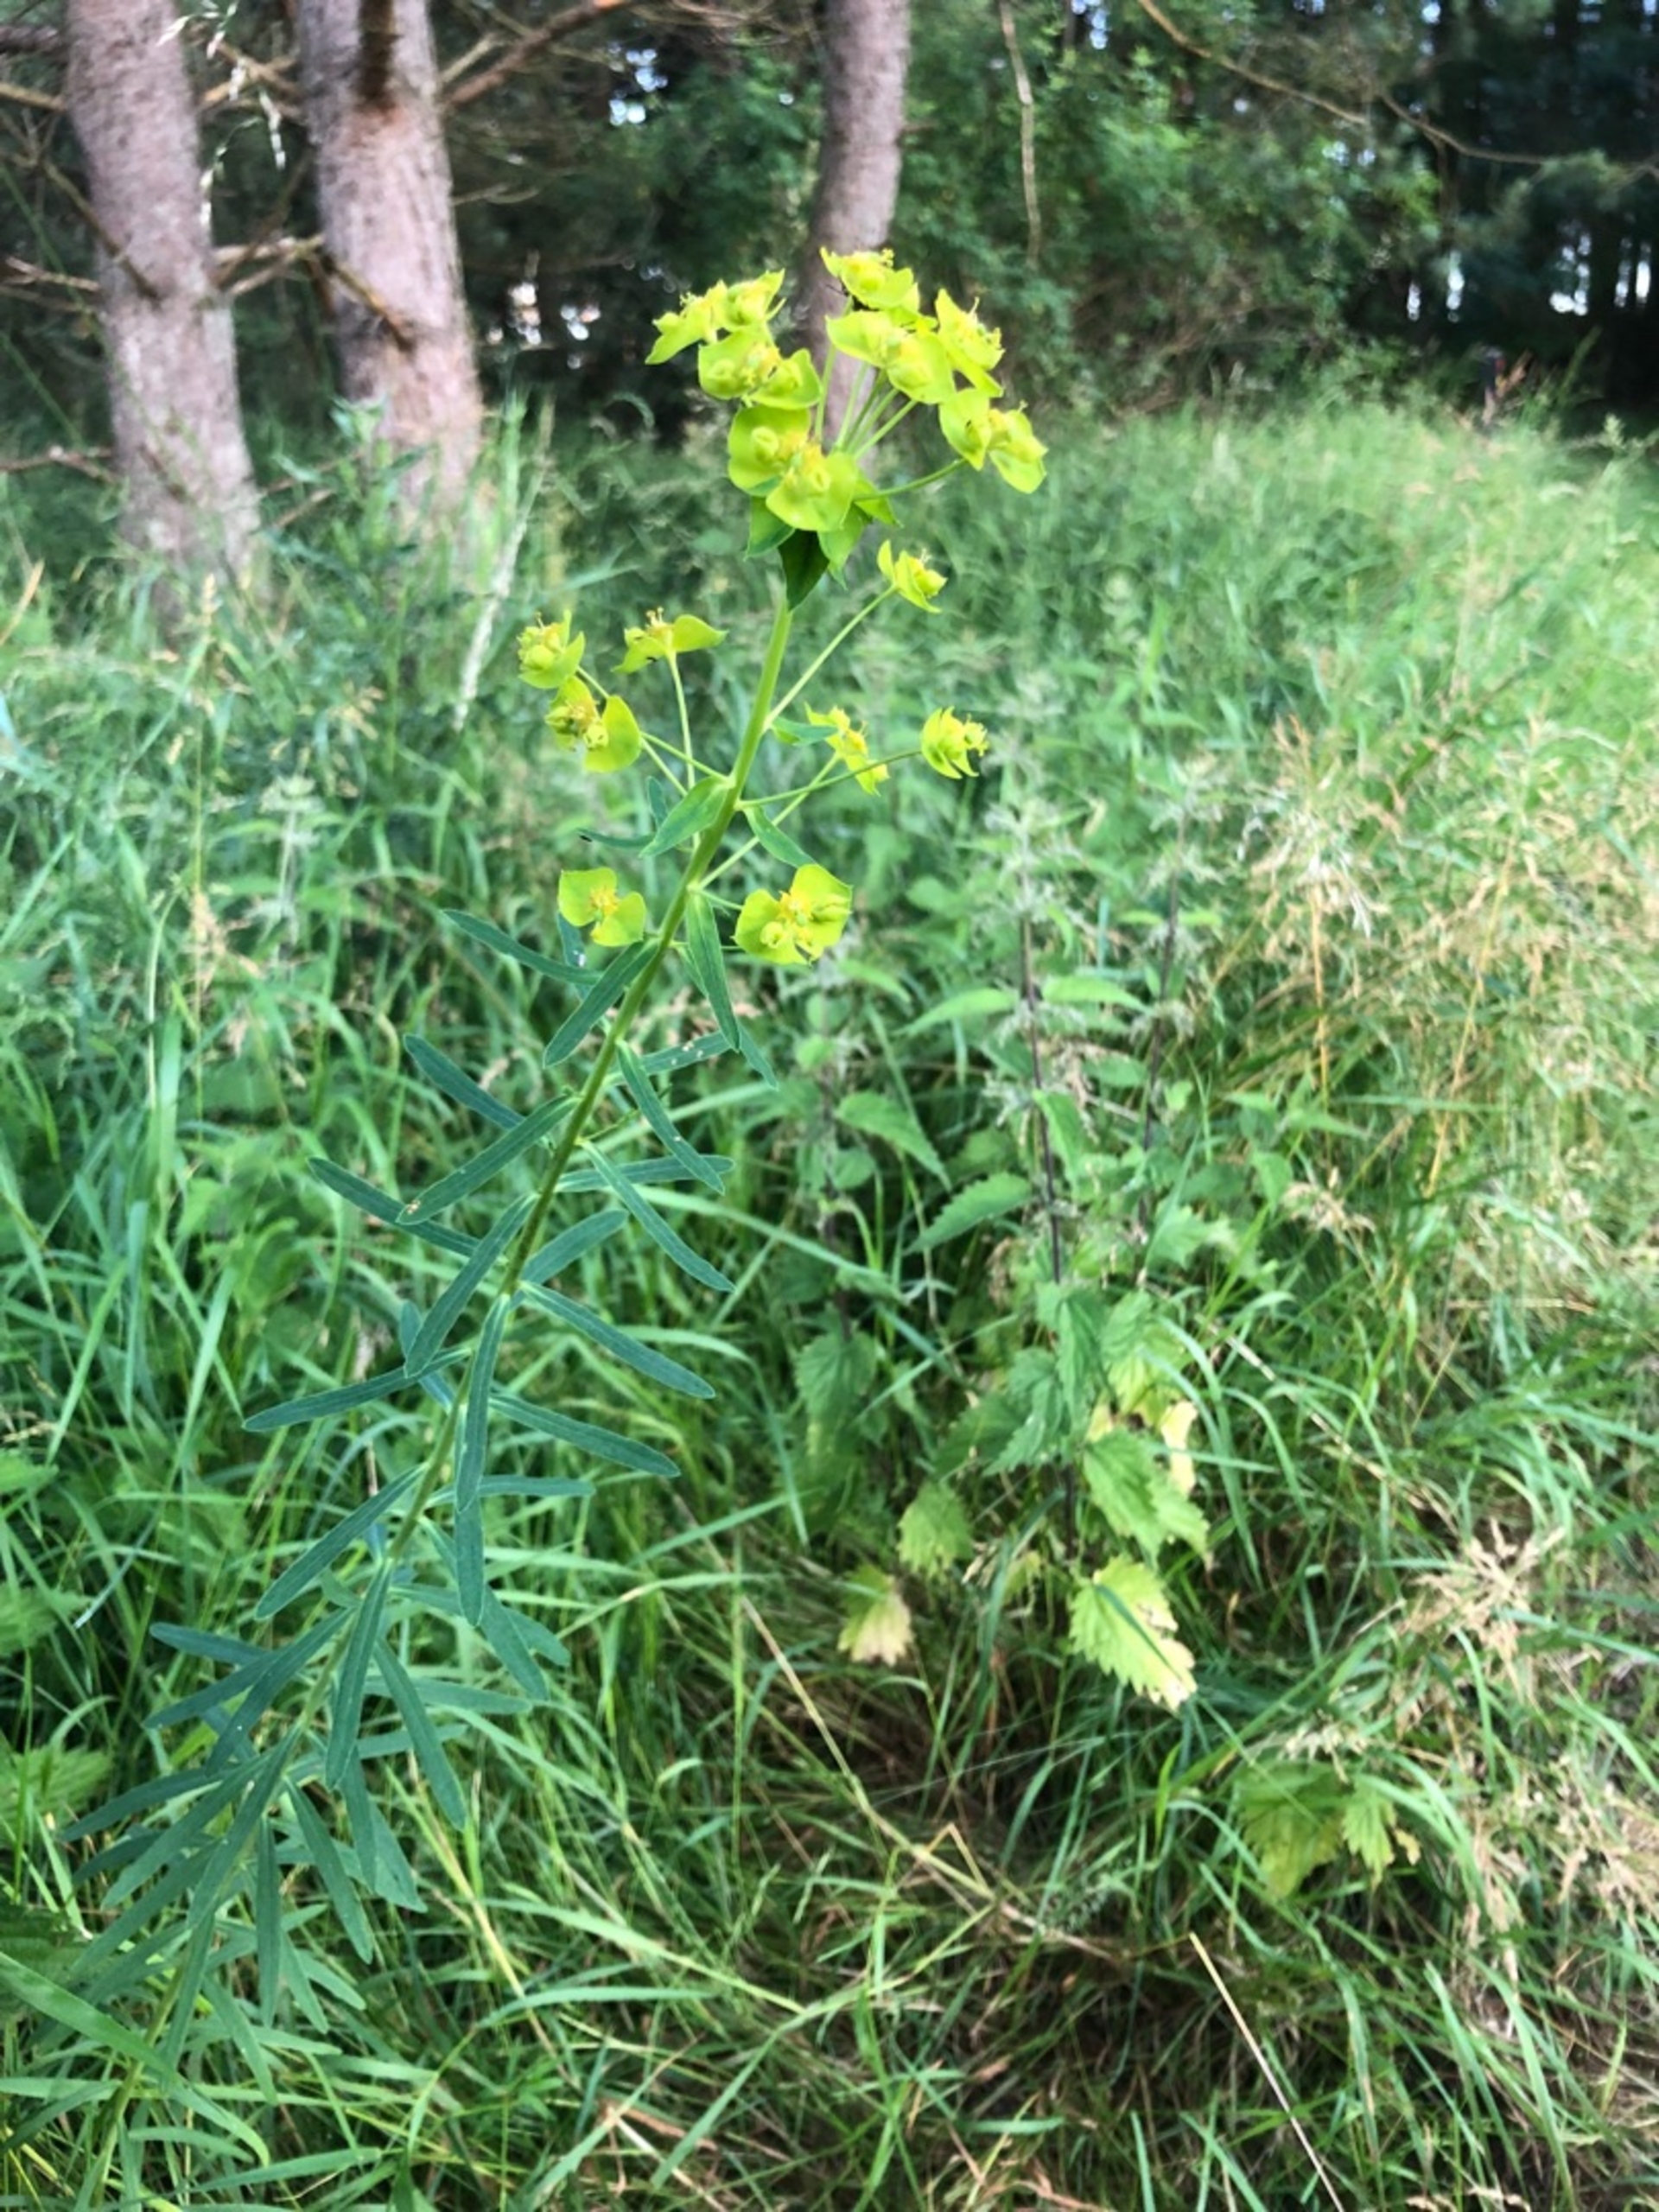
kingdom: Plantae
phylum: Tracheophyta
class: Magnoliopsida
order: Malpighiales
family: Euphorbiaceae
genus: Euphorbia
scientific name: Euphorbia tommasiniana
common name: Ris-vortemælk
